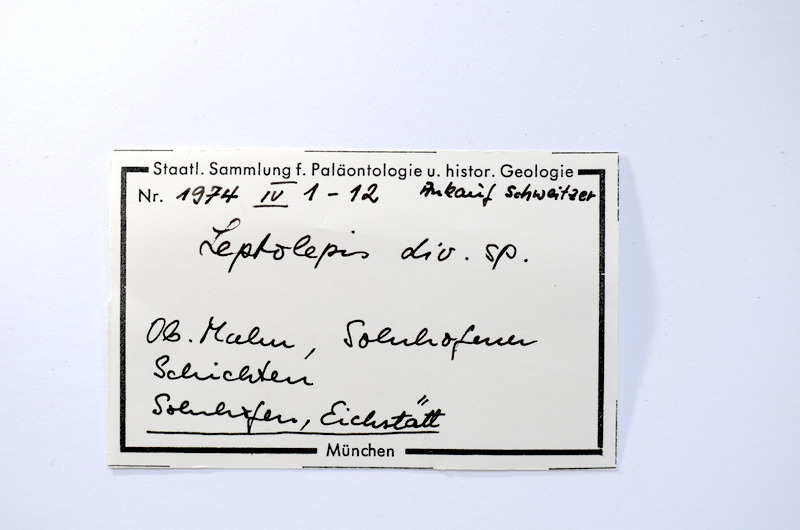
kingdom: Animalia
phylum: Chordata
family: Ascalaboidae
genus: Tharsis
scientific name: Tharsis dubius
